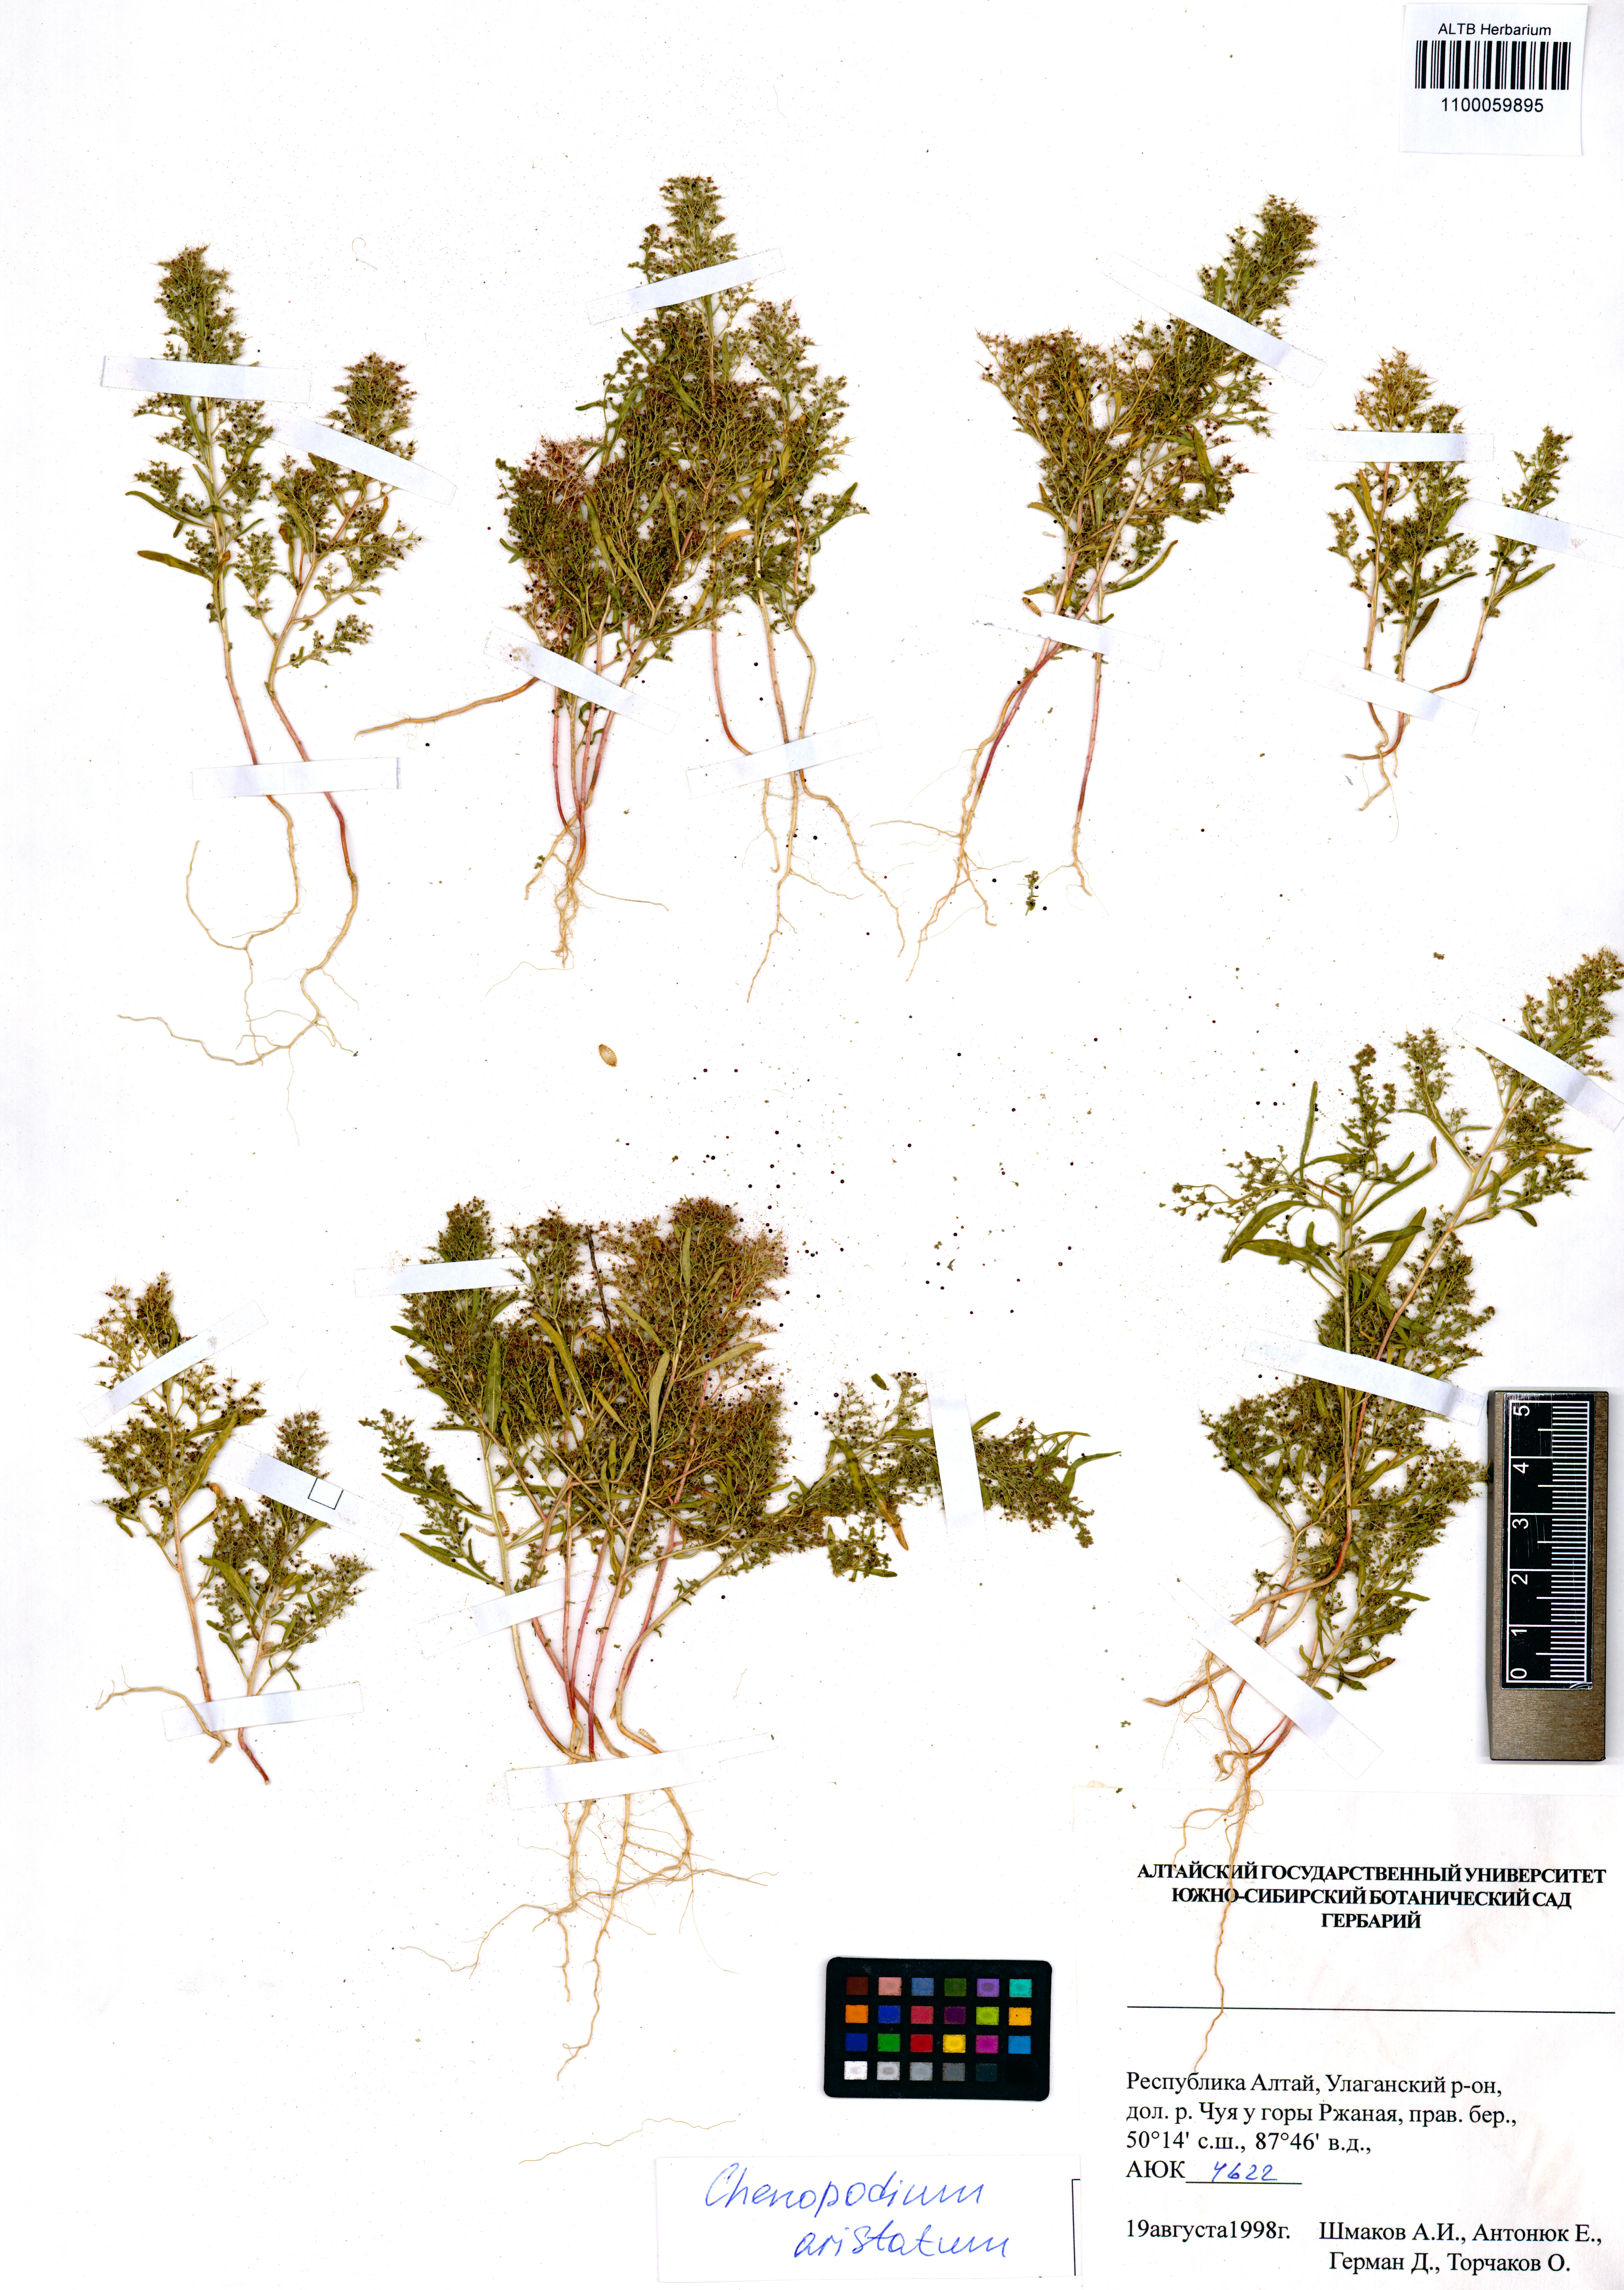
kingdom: Plantae
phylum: Tracheophyta
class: Magnoliopsida
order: Caryophyllales
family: Amaranthaceae
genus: Teloxys
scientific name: Teloxys aristata
